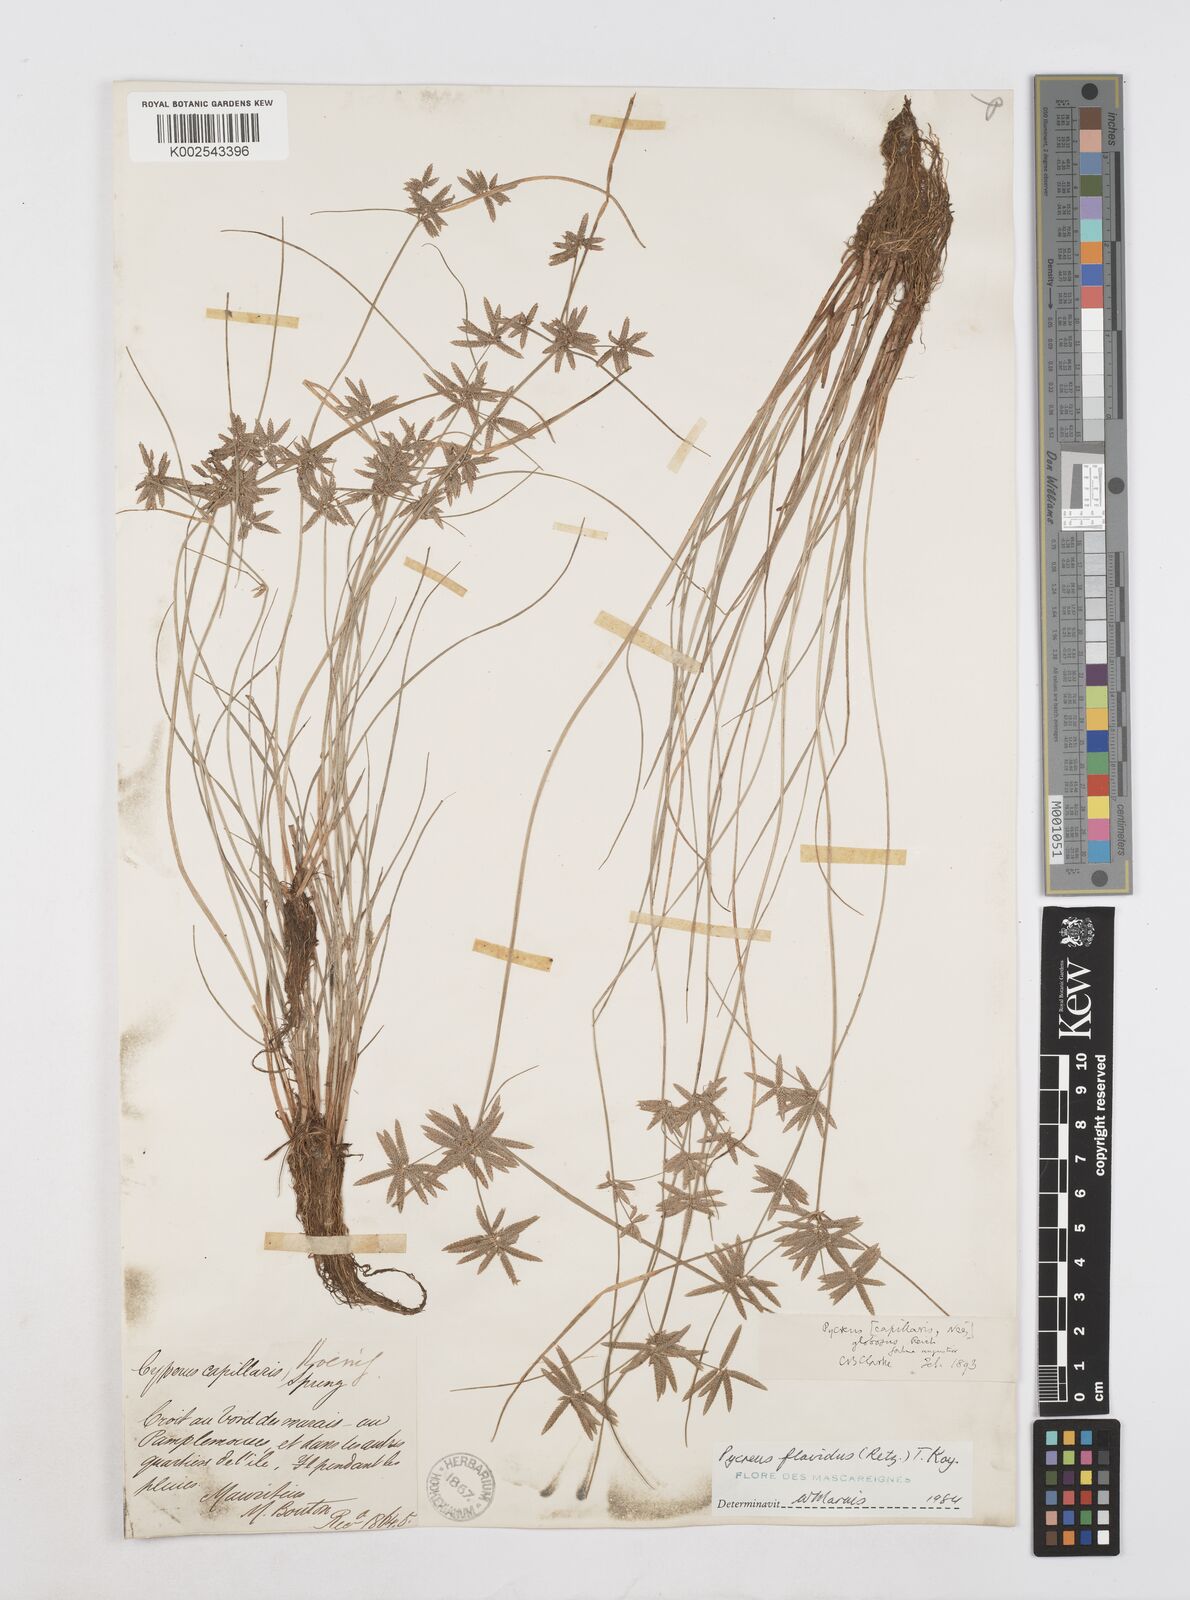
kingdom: Plantae
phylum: Tracheophyta
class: Liliopsida
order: Poales
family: Cyperaceae
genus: Cyperus
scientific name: Cyperus flavidus
